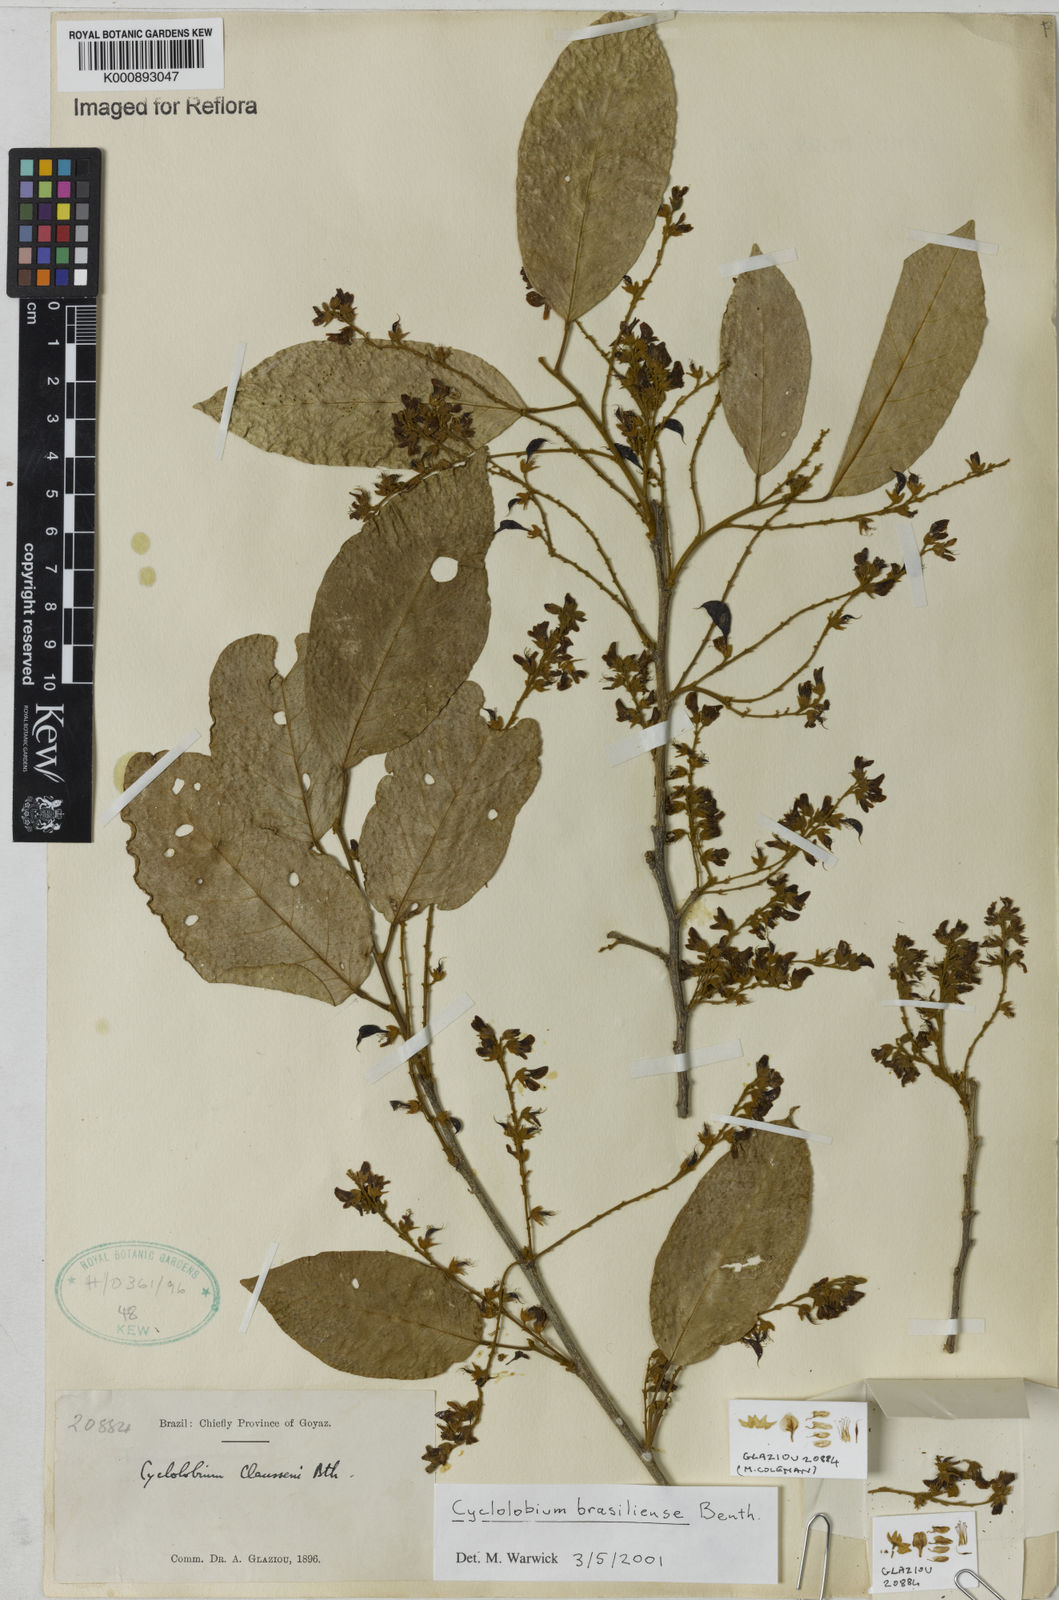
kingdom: Plantae
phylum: Tracheophyta
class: Magnoliopsida
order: Fabales
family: Fabaceae
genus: Cyclolobium
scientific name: Cyclolobium brasiliense
